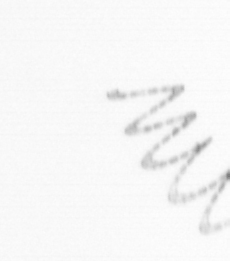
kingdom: Chromista
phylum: Ochrophyta
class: Bacillariophyceae
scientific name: Bacillariophyceae
